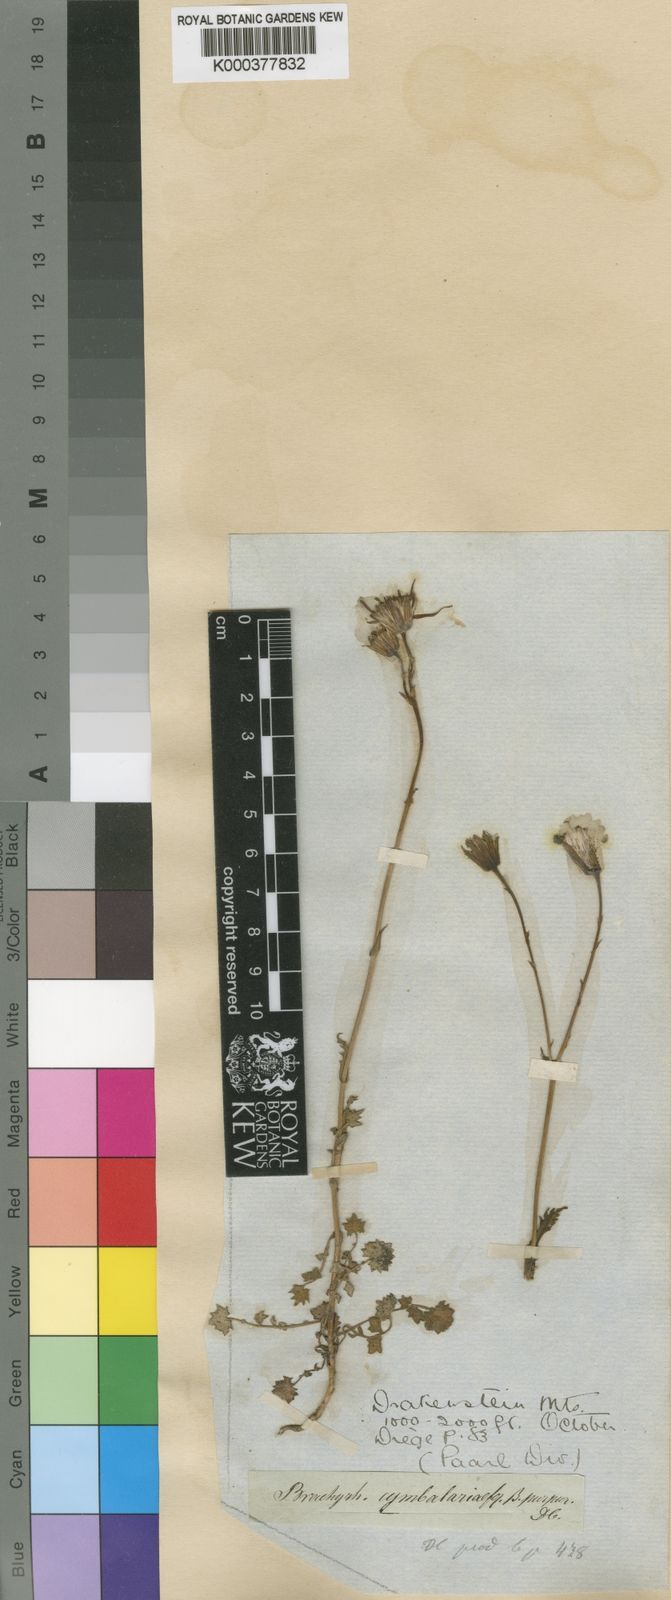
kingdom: Plantae
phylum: Tracheophyta
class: Magnoliopsida
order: Asterales
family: Asteraceae
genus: Senecio
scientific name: Senecio
